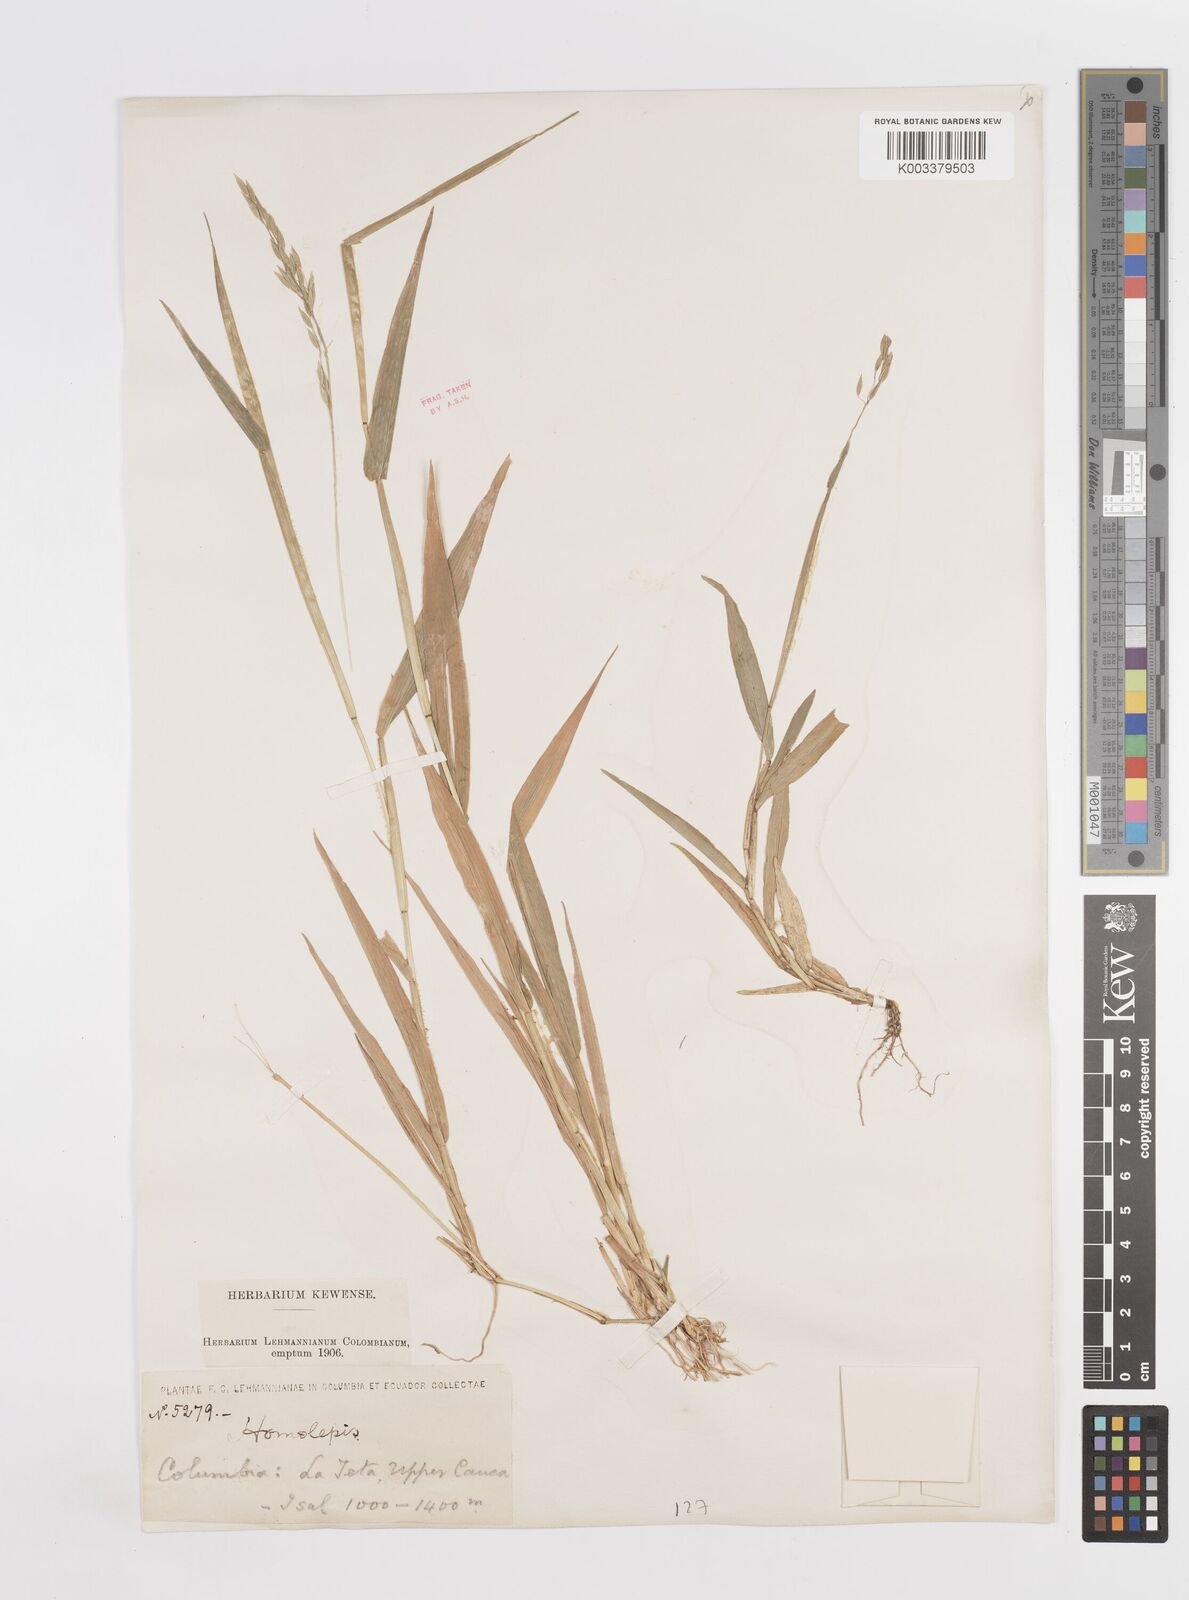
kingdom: Plantae
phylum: Tracheophyta
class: Liliopsida
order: Poales
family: Poaceae
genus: Homolepis
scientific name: Homolepis aturensis
